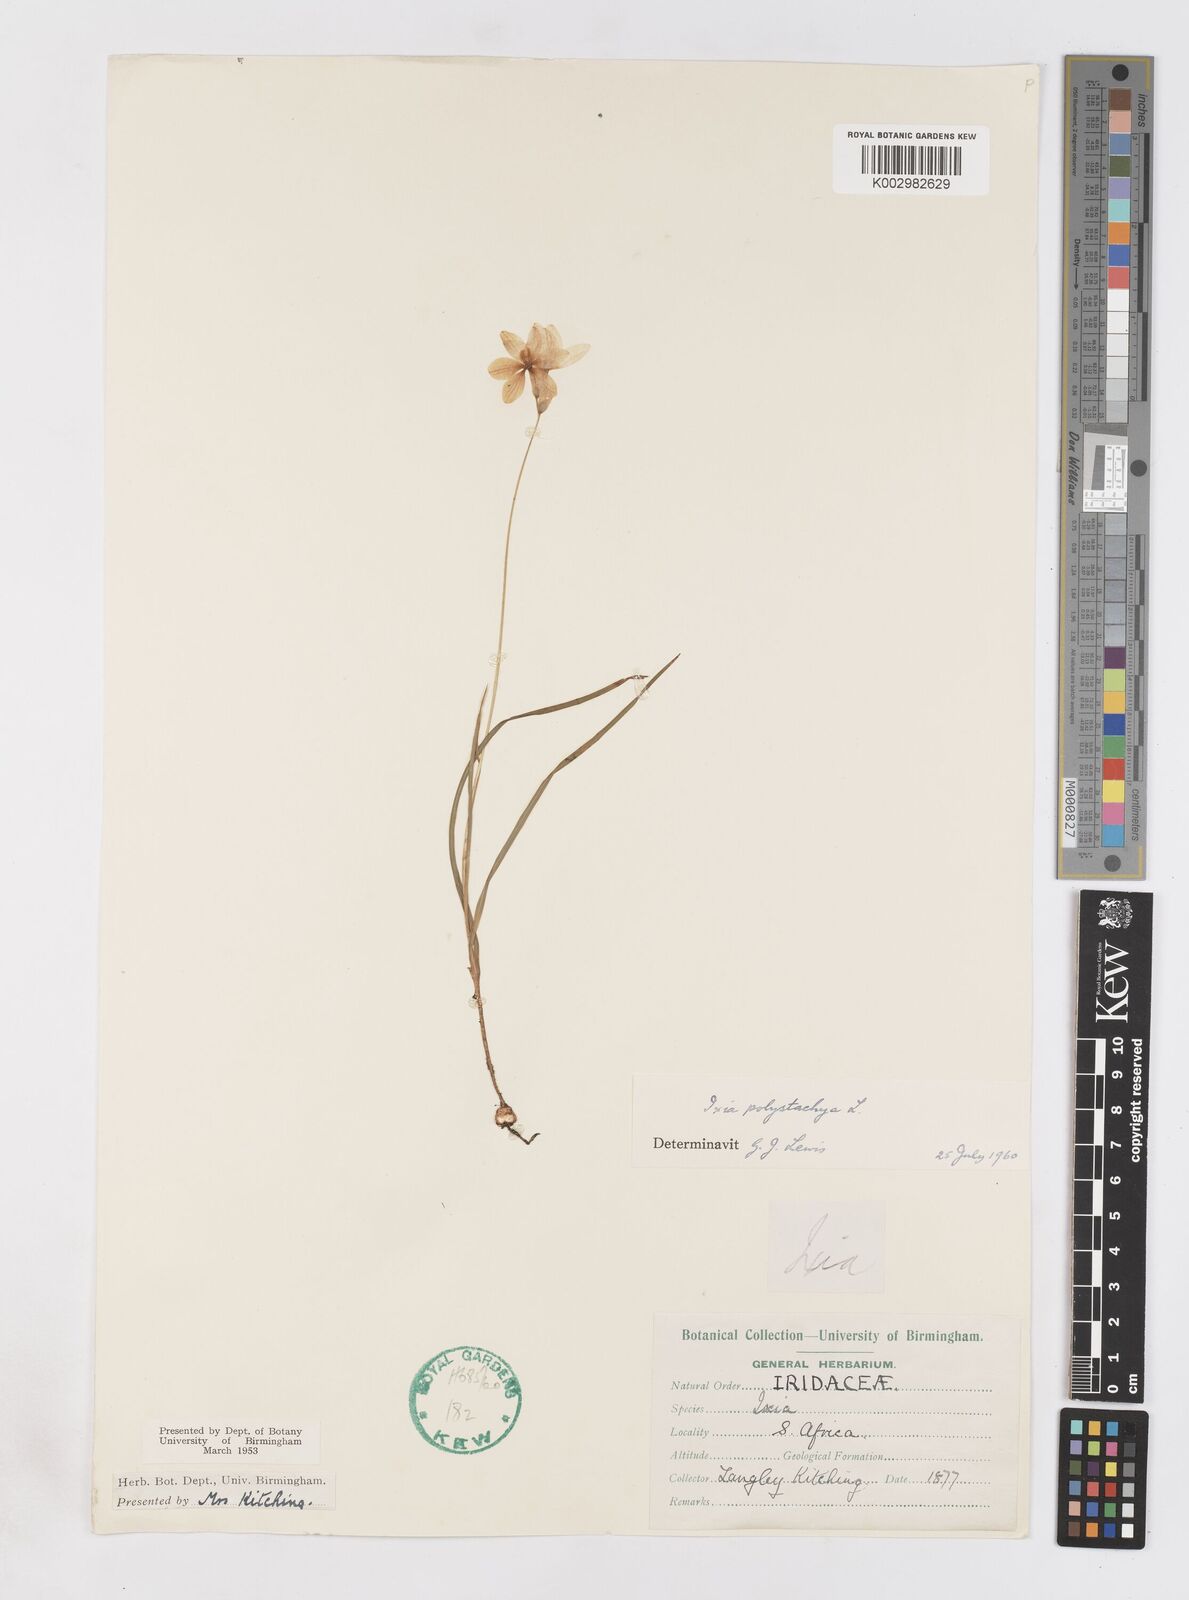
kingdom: Plantae
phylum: Tracheophyta
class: Liliopsida
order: Asparagales
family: Iridaceae
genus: Ixia
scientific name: Ixia polystachya
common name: White-and-yellow-flower cornlily
